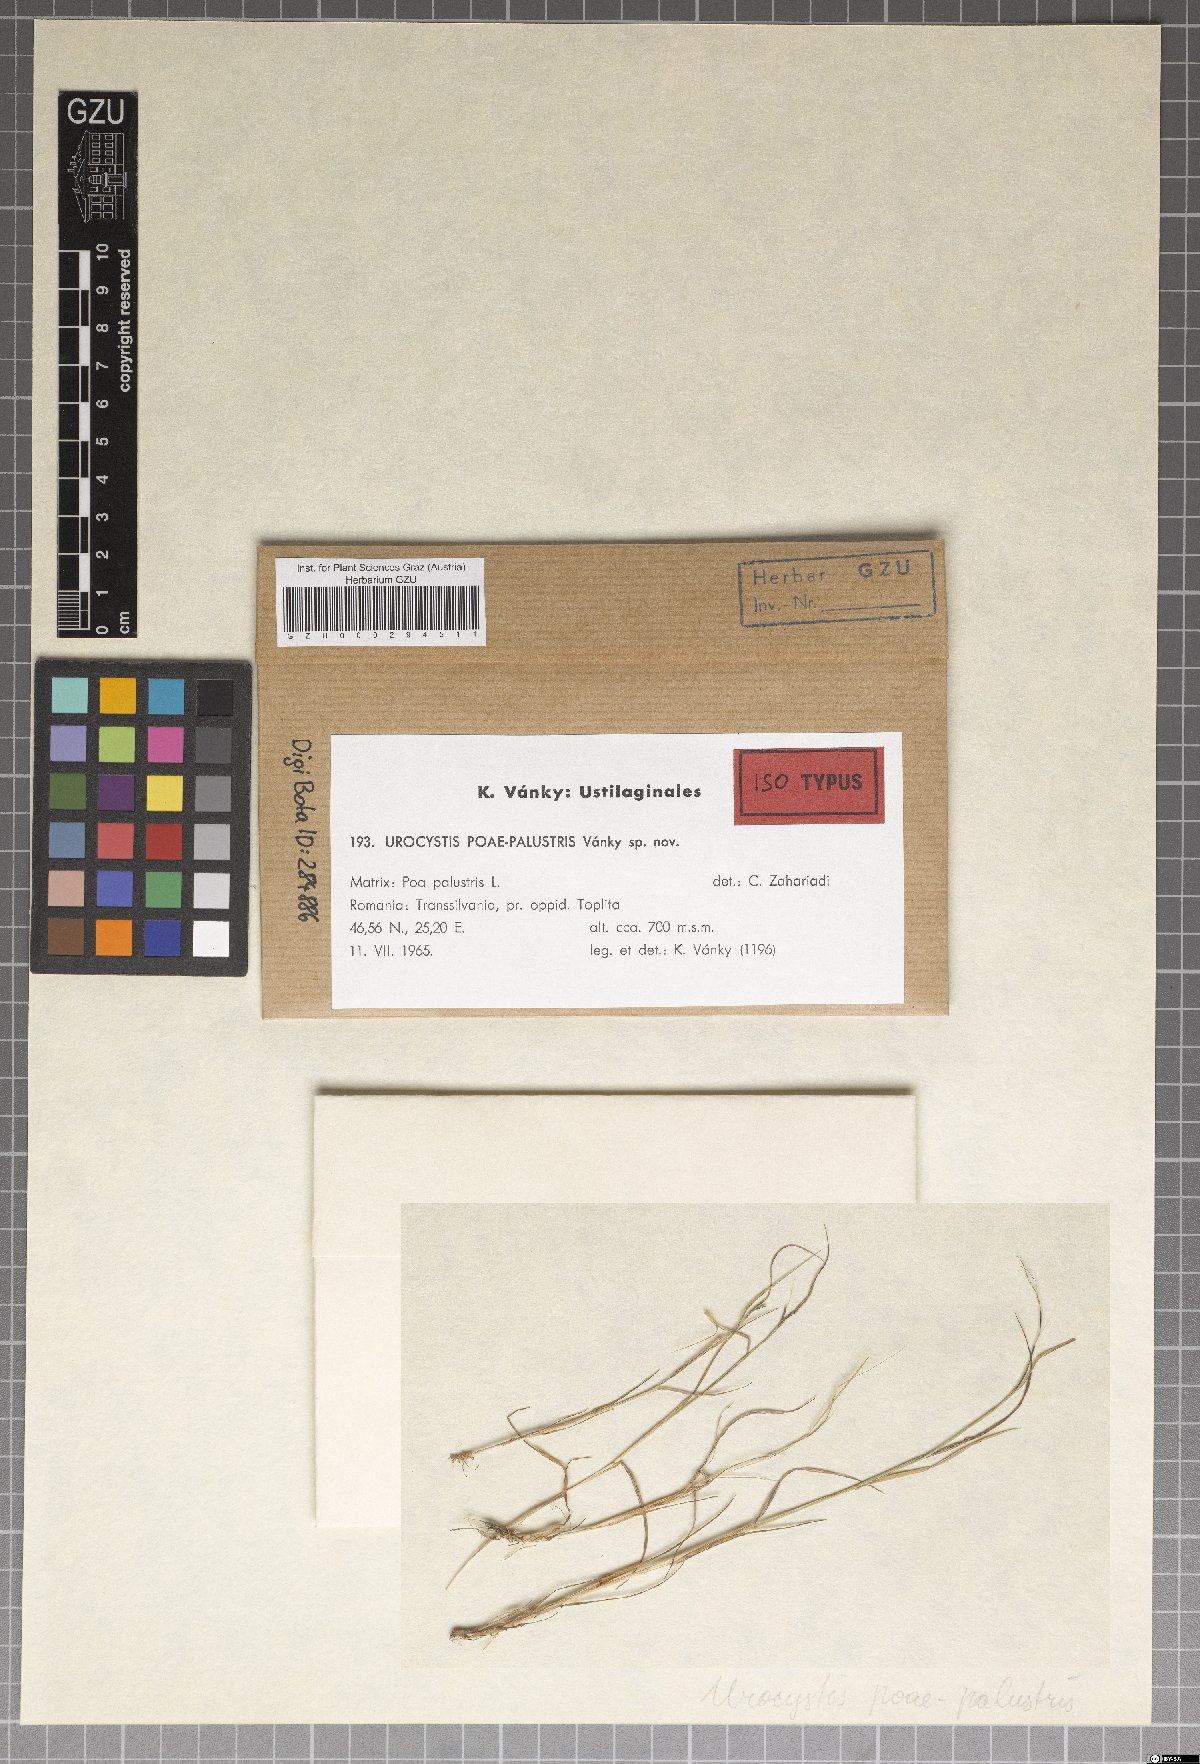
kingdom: Fungi
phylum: Basidiomycota
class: Ustilaginomycetes
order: Urocystidales
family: Urocystidaceae
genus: Urocystis
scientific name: Urocystis poae-palustris
